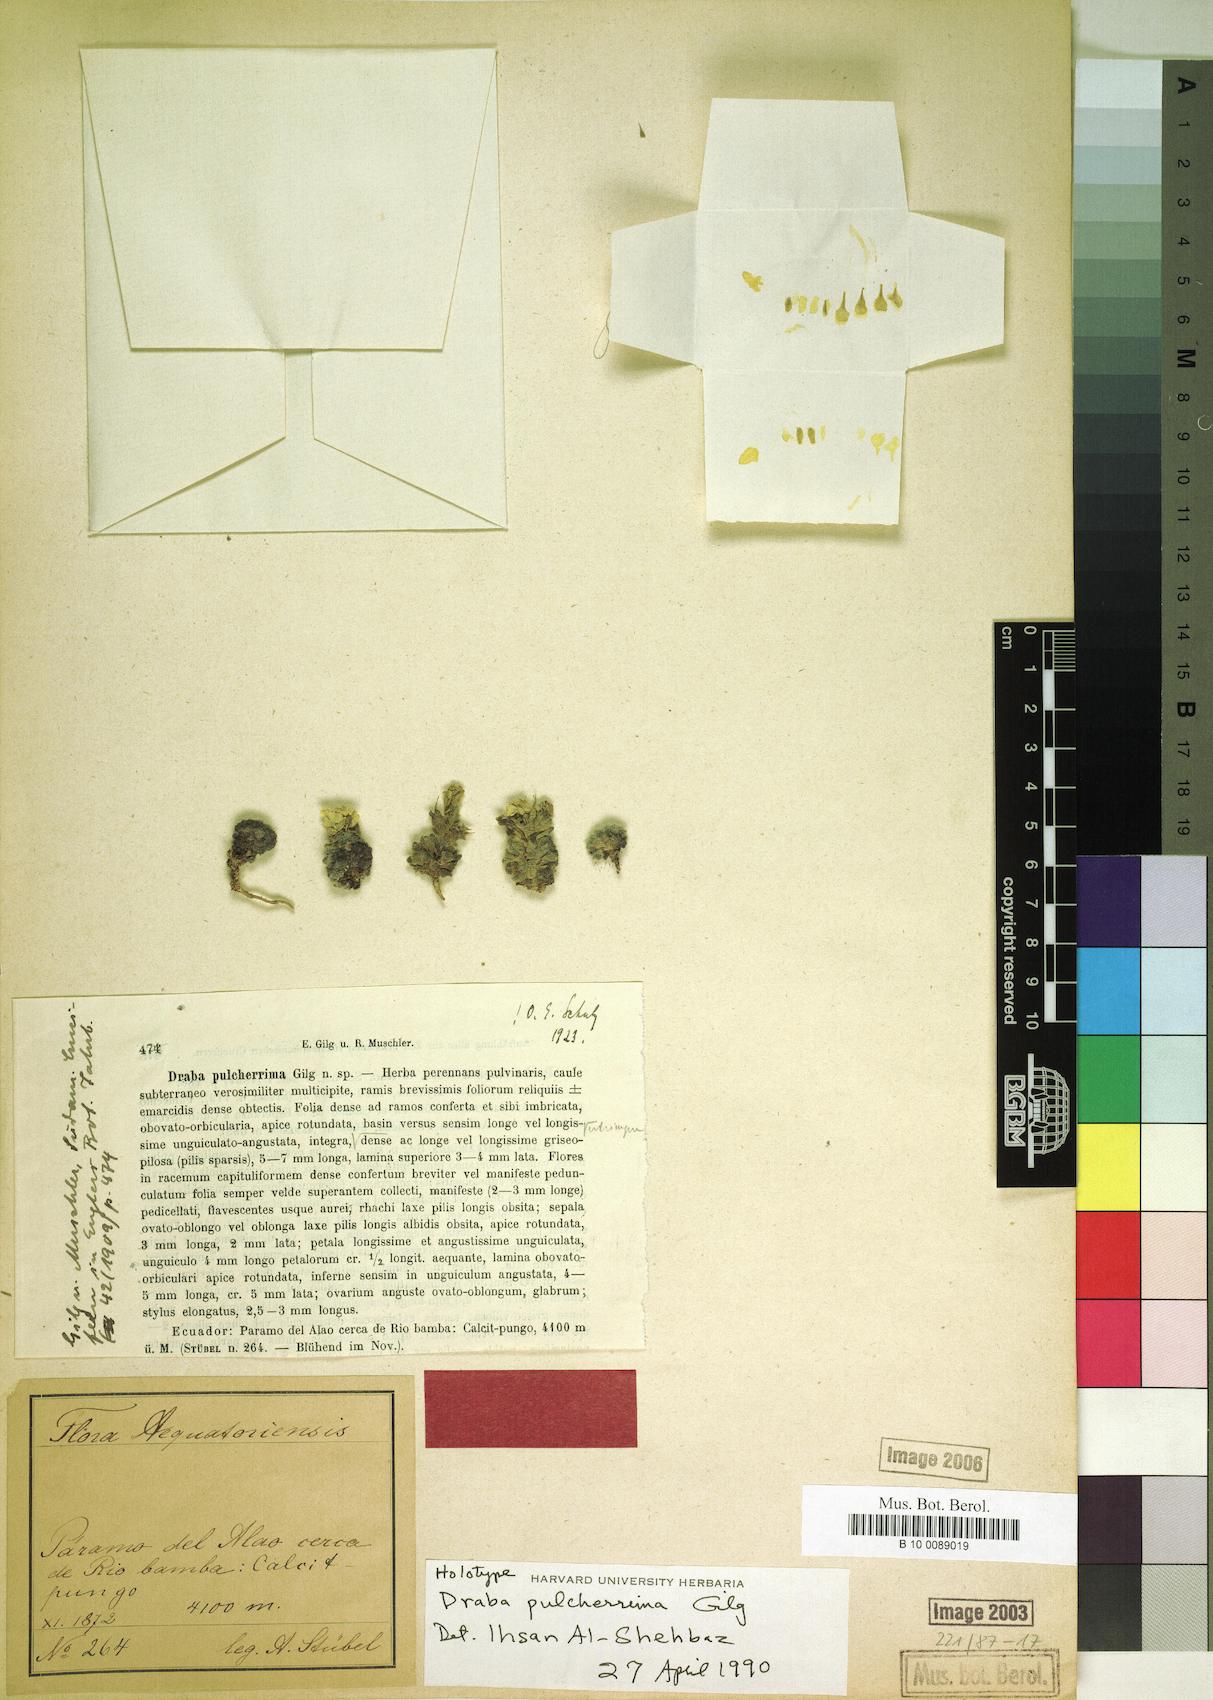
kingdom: Plantae
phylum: Tracheophyta
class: Magnoliopsida
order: Brassicales
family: Brassicaceae
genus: Draba
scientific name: Draba pulcherrima
